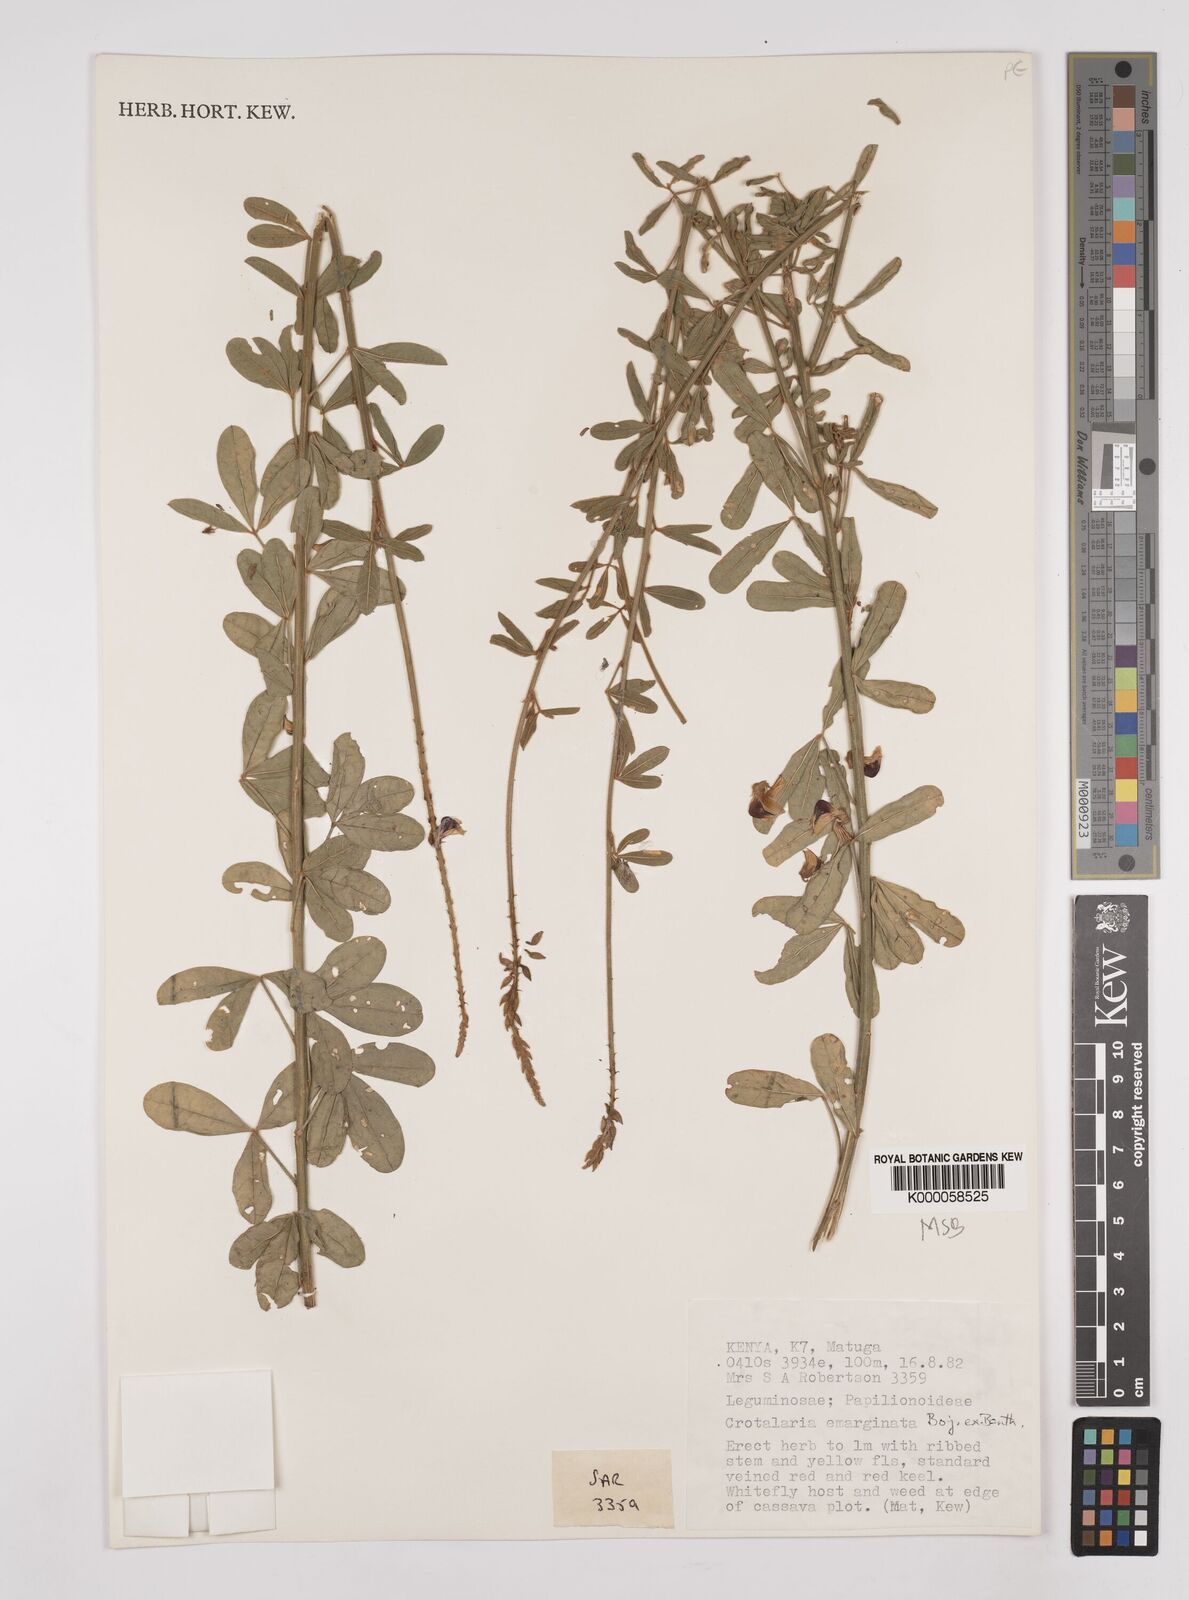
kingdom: Plantae
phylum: Tracheophyta
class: Magnoliopsida
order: Fabales
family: Fabaceae
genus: Crotalaria
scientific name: Crotalaria emarginata
